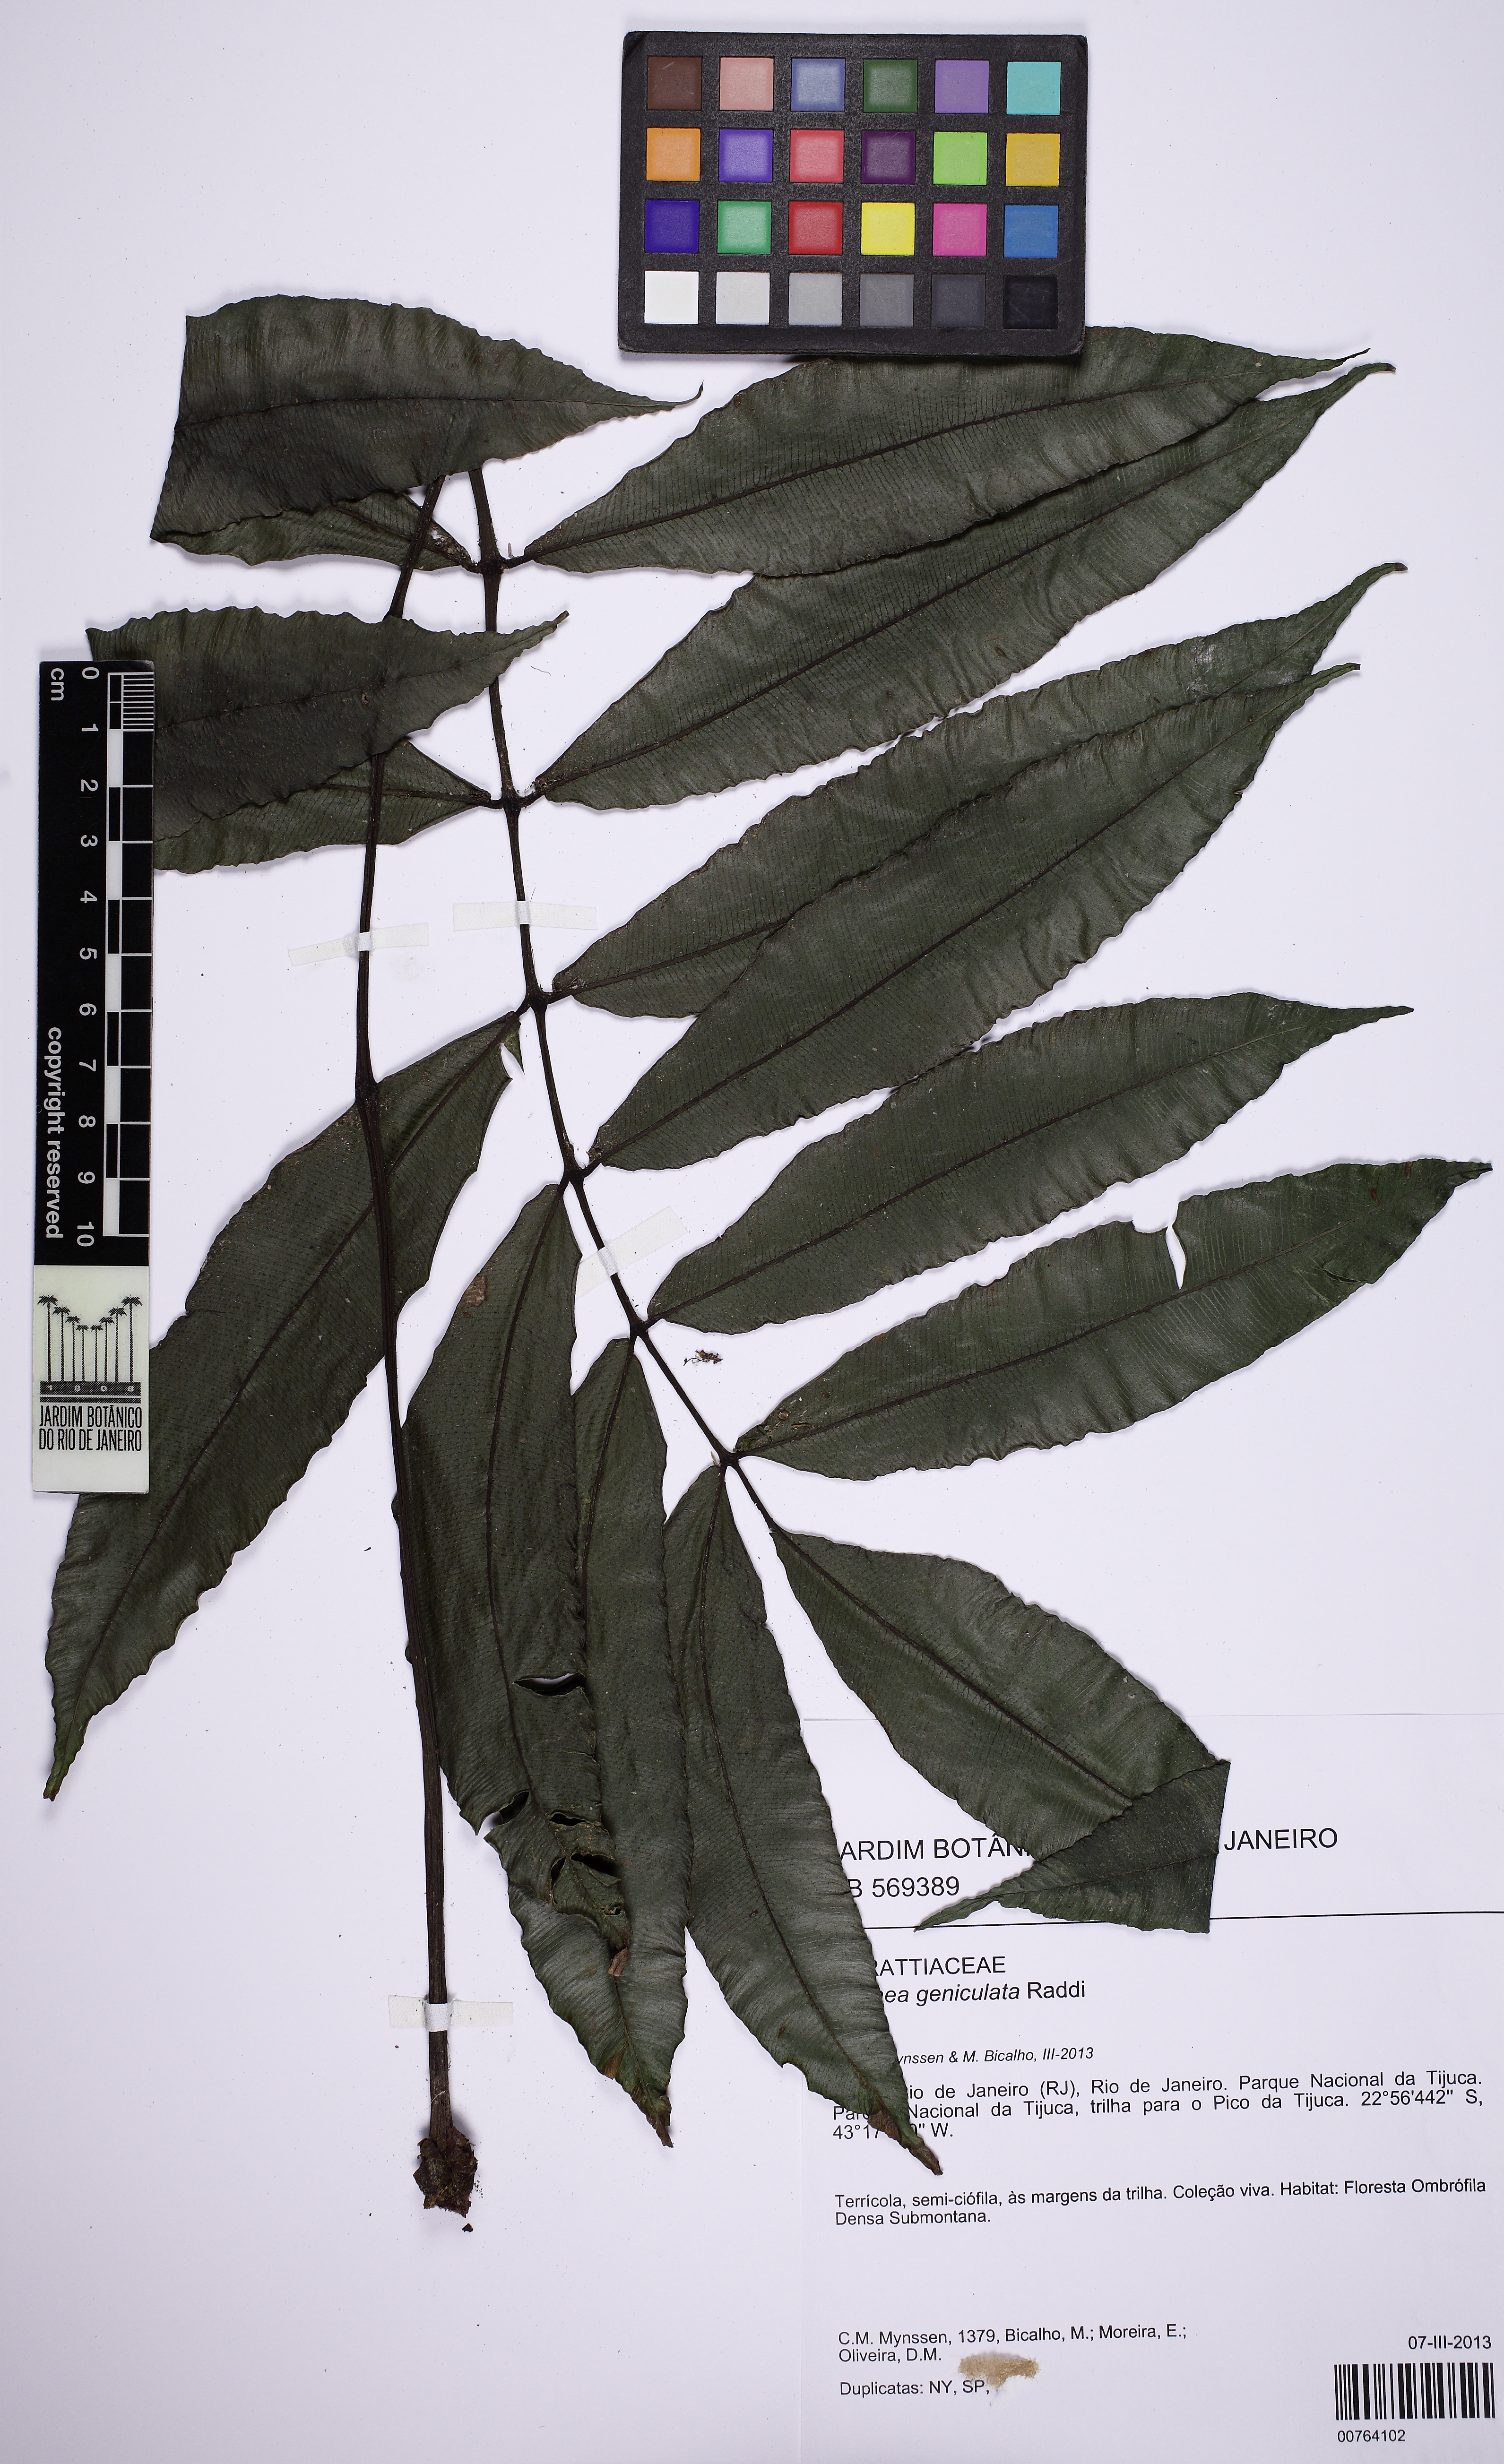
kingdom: Plantae
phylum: Tracheophyta
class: Polypodiopsida
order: Marattiales
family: Marattiaceae
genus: Danaea
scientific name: Danaea geniculata
